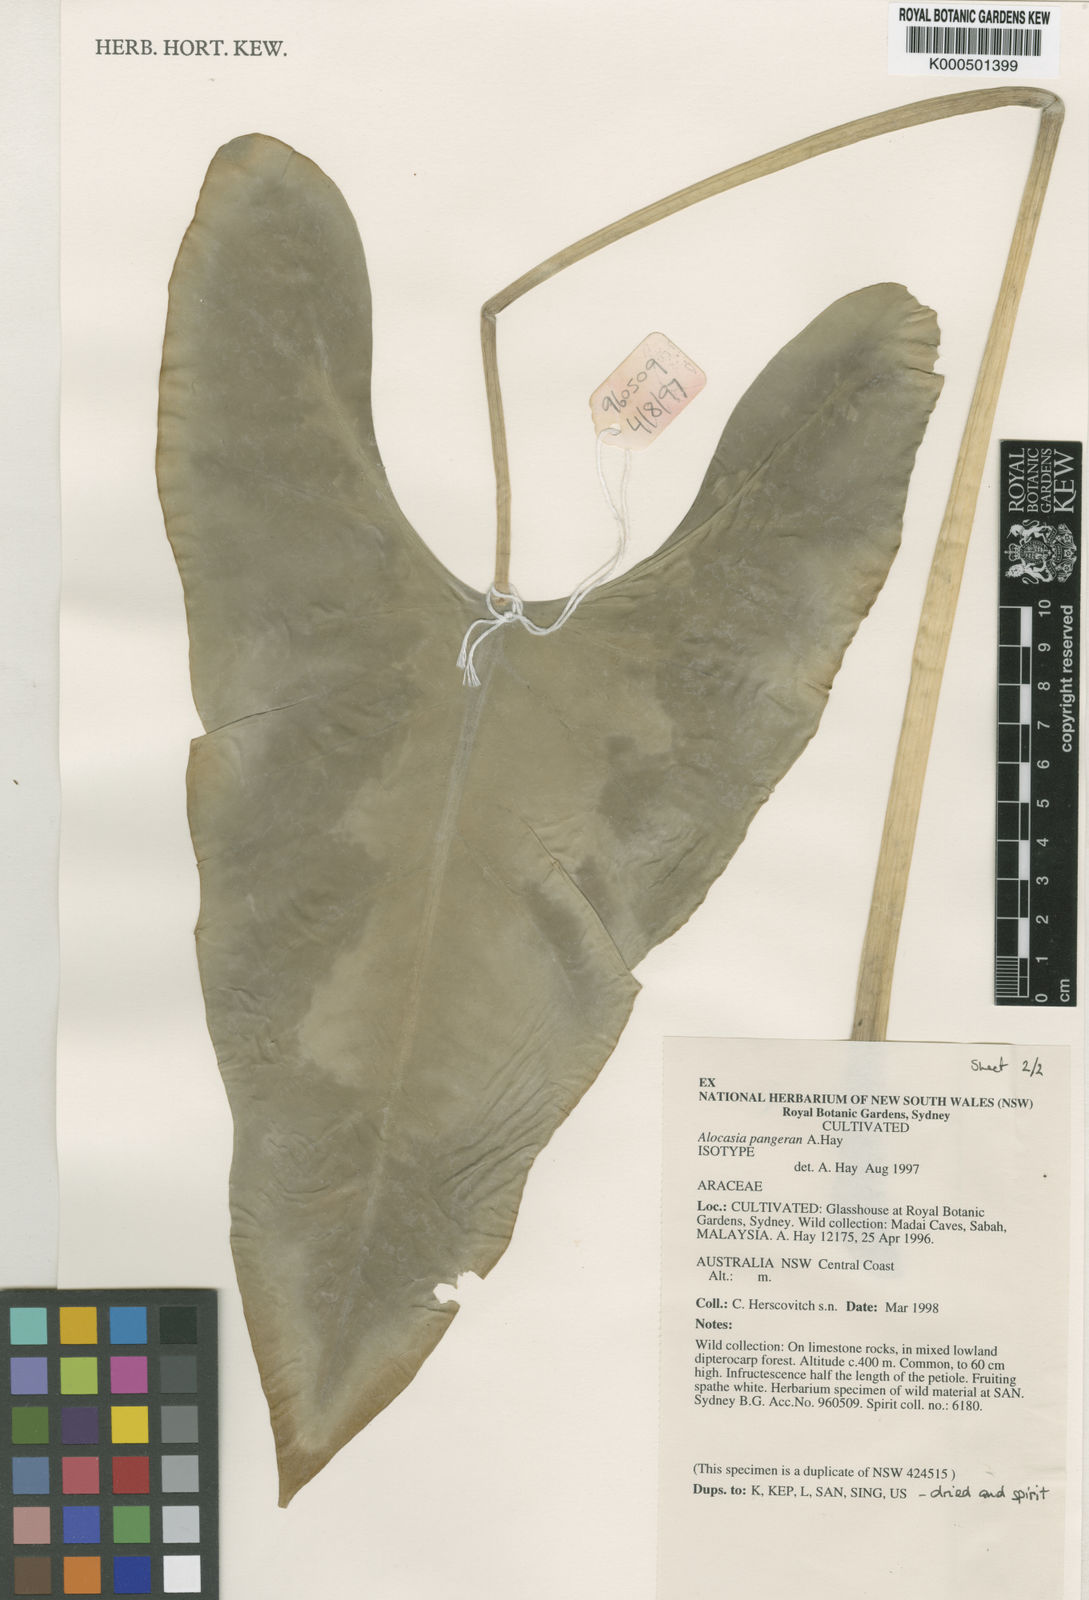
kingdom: Plantae
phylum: Tracheophyta
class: Liliopsida
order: Alismatales
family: Araceae
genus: Alocasia
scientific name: Alocasia pangeran
